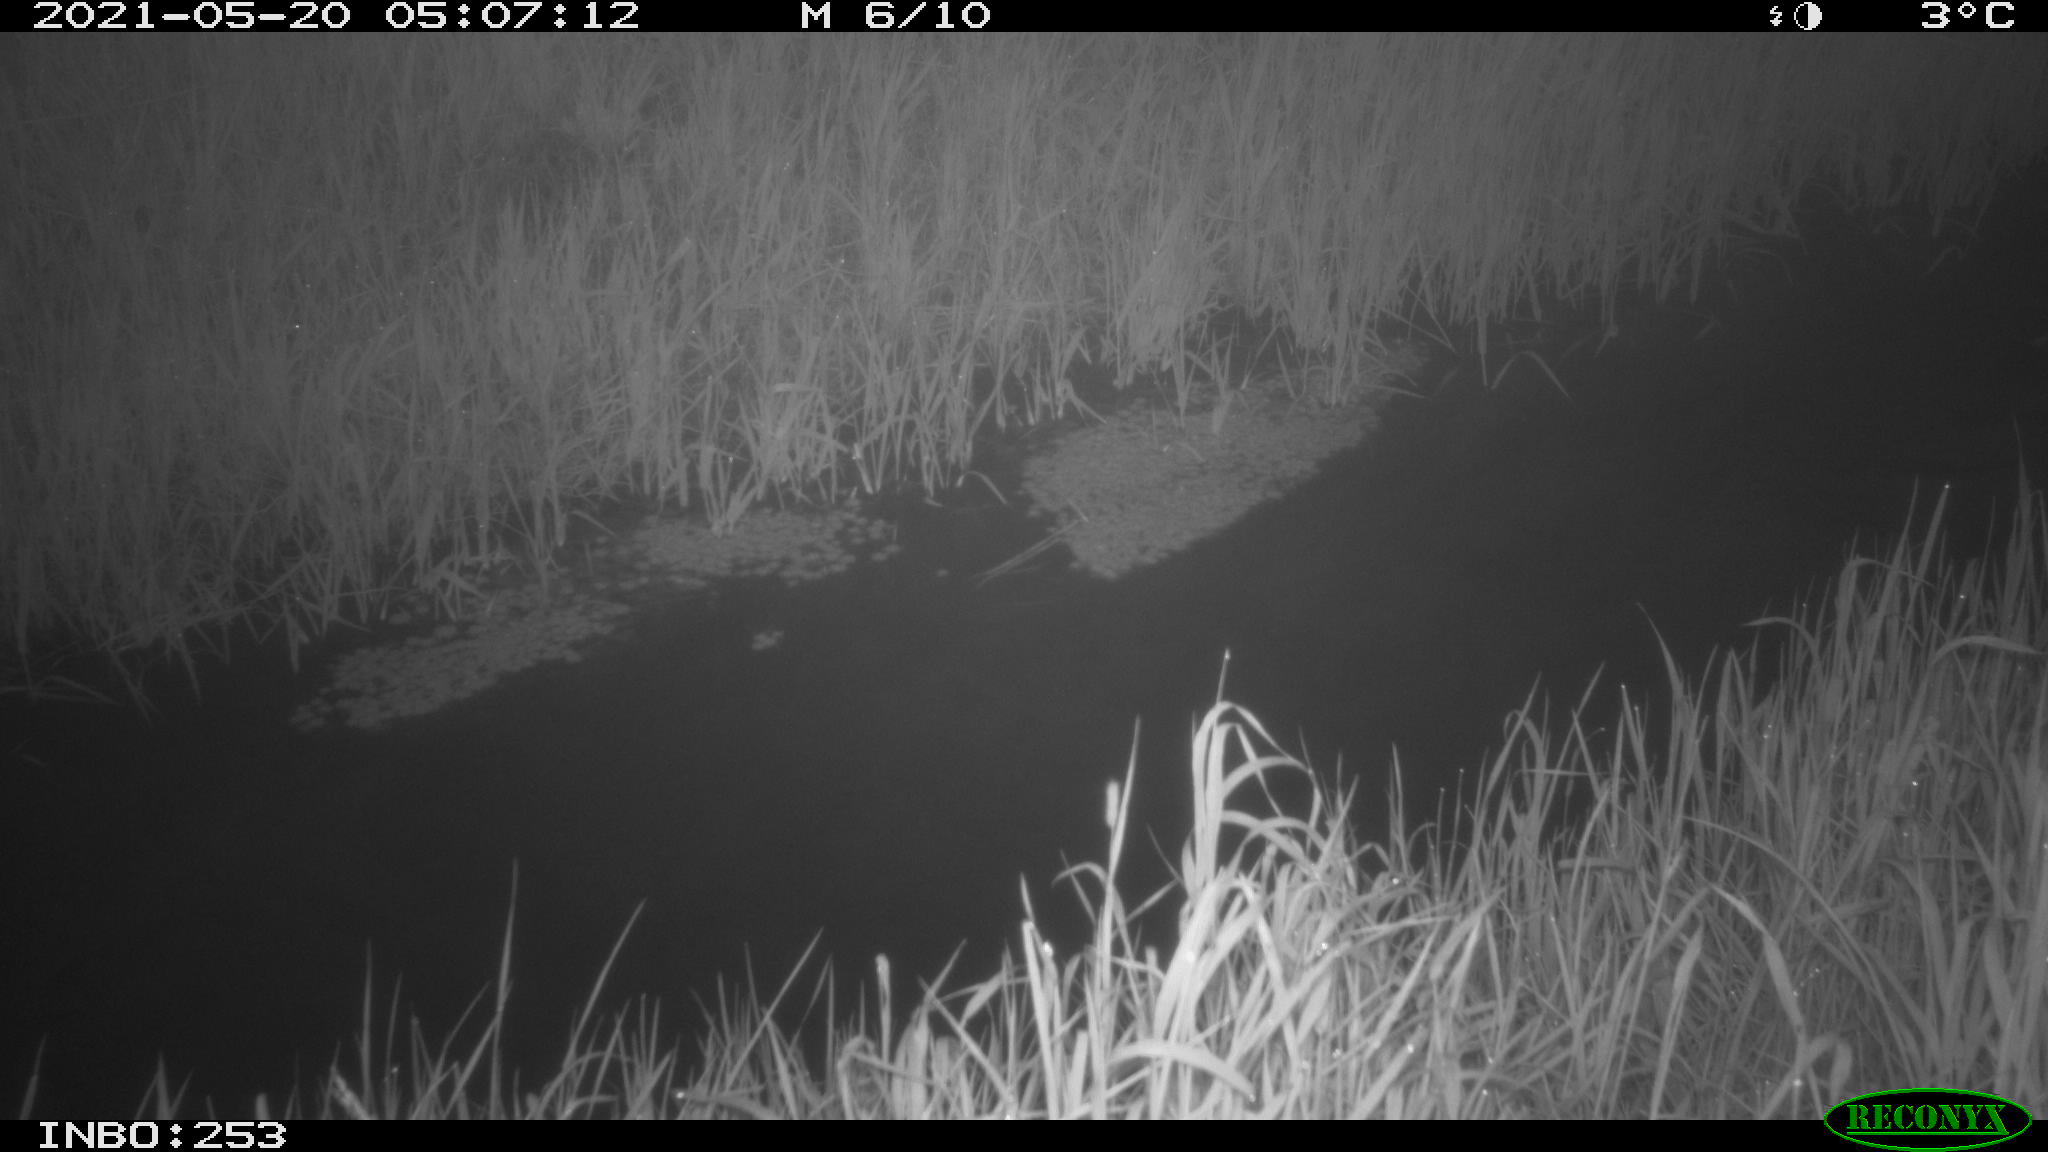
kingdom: Animalia
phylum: Chordata
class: Aves
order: Anseriformes
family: Anatidae
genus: Anas
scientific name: Anas platyrhynchos
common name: Mallard
